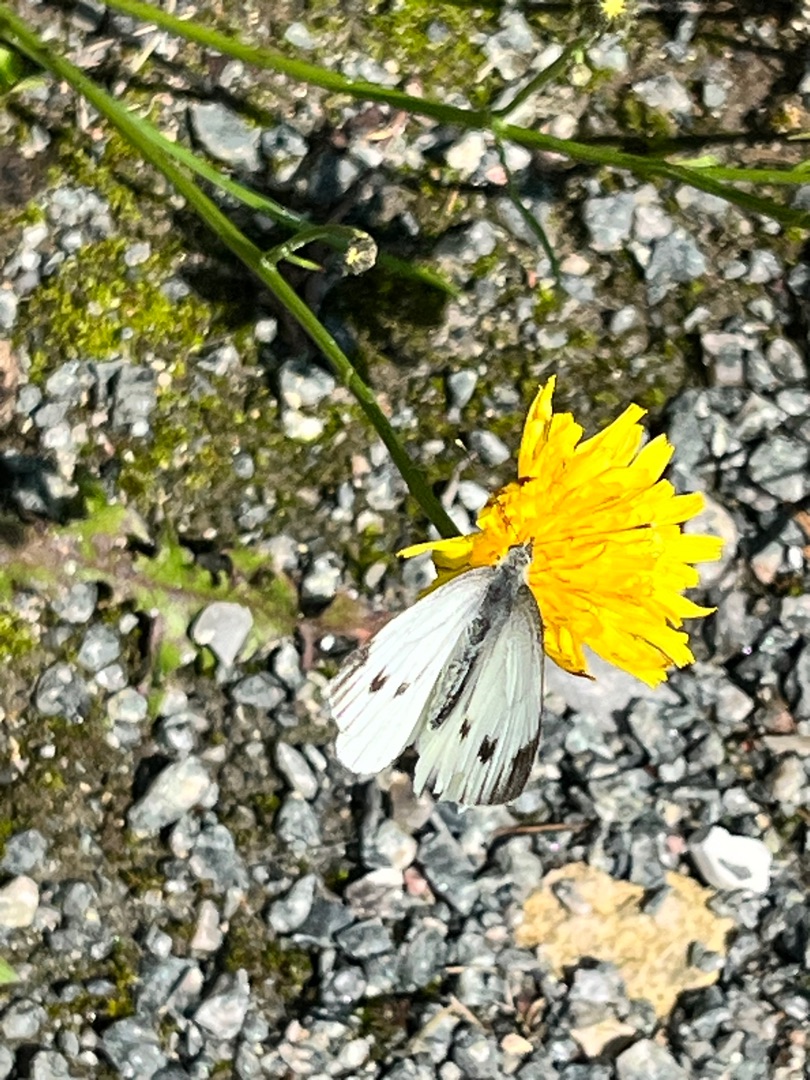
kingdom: Animalia
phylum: Arthropoda
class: Insecta
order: Lepidoptera
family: Pieridae
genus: Pieris
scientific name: Pieris napi
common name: Grønåret kålsommerfugl
